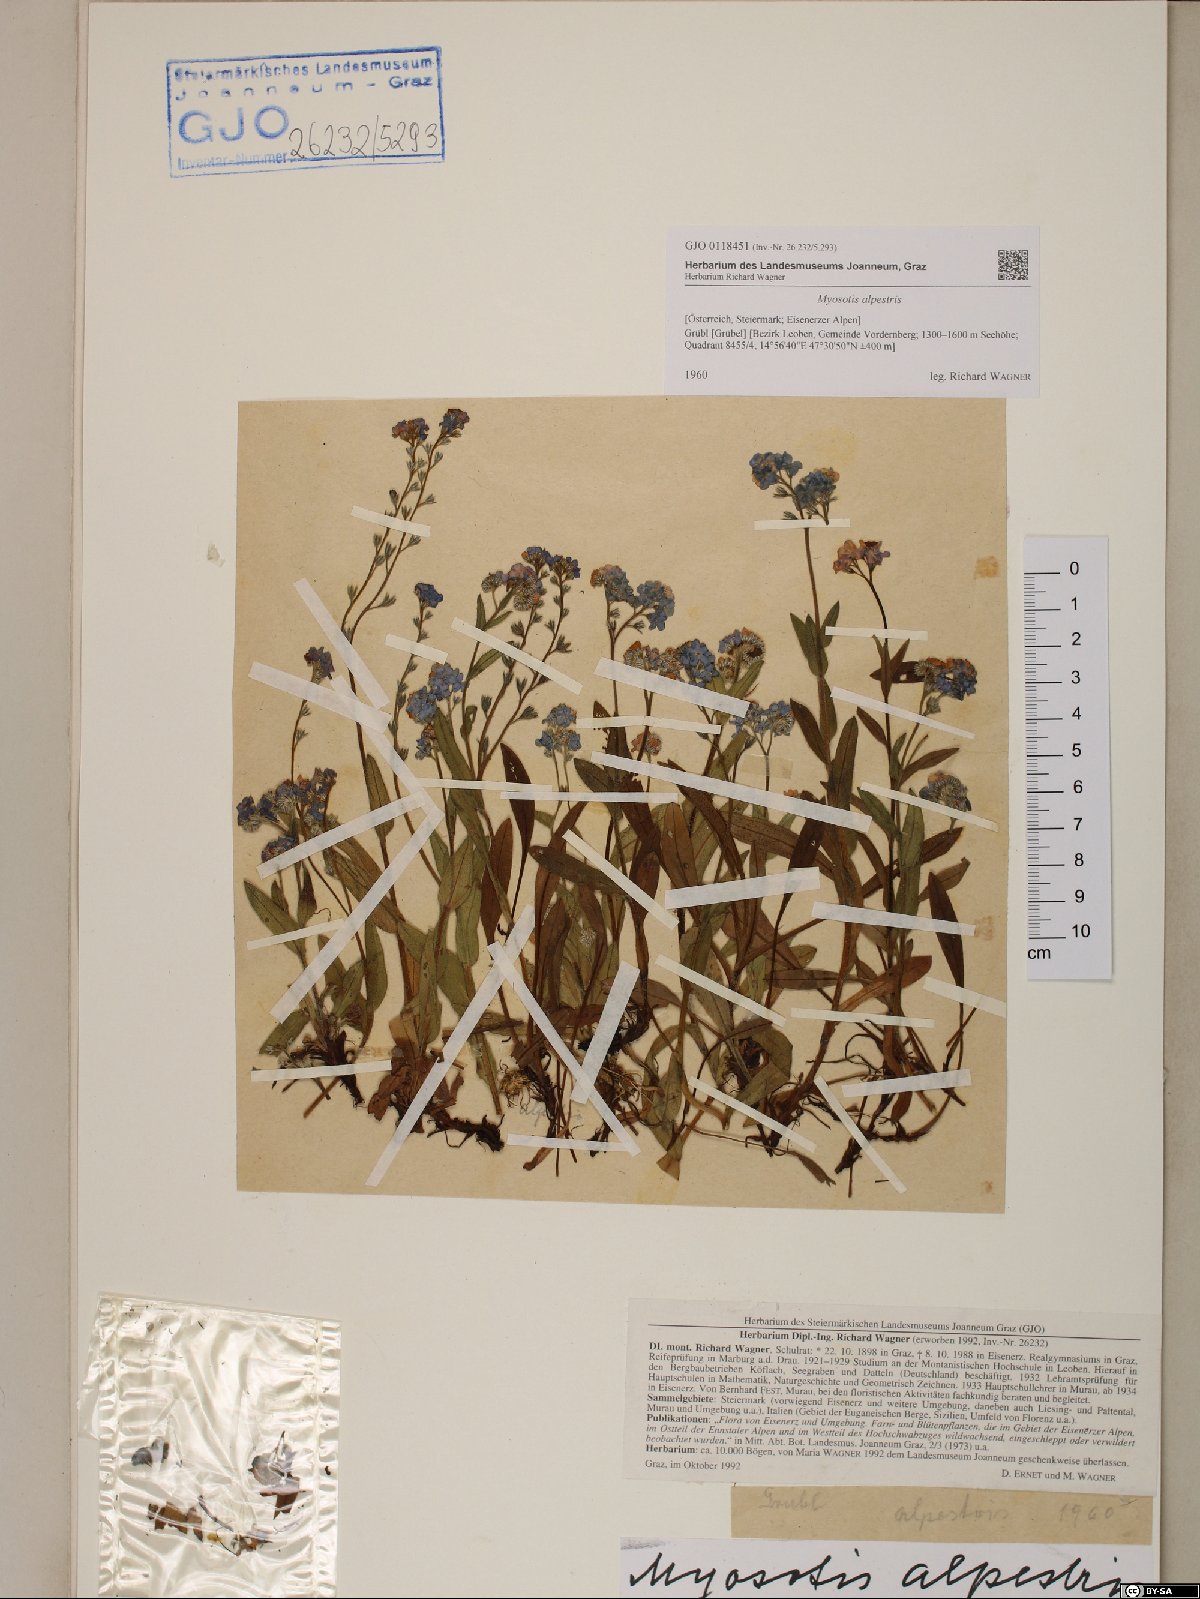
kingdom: Plantae
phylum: Tracheophyta
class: Magnoliopsida
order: Boraginales
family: Boraginaceae
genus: Myosotis
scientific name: Myosotis alpestris
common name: Alpine forget-me-not
